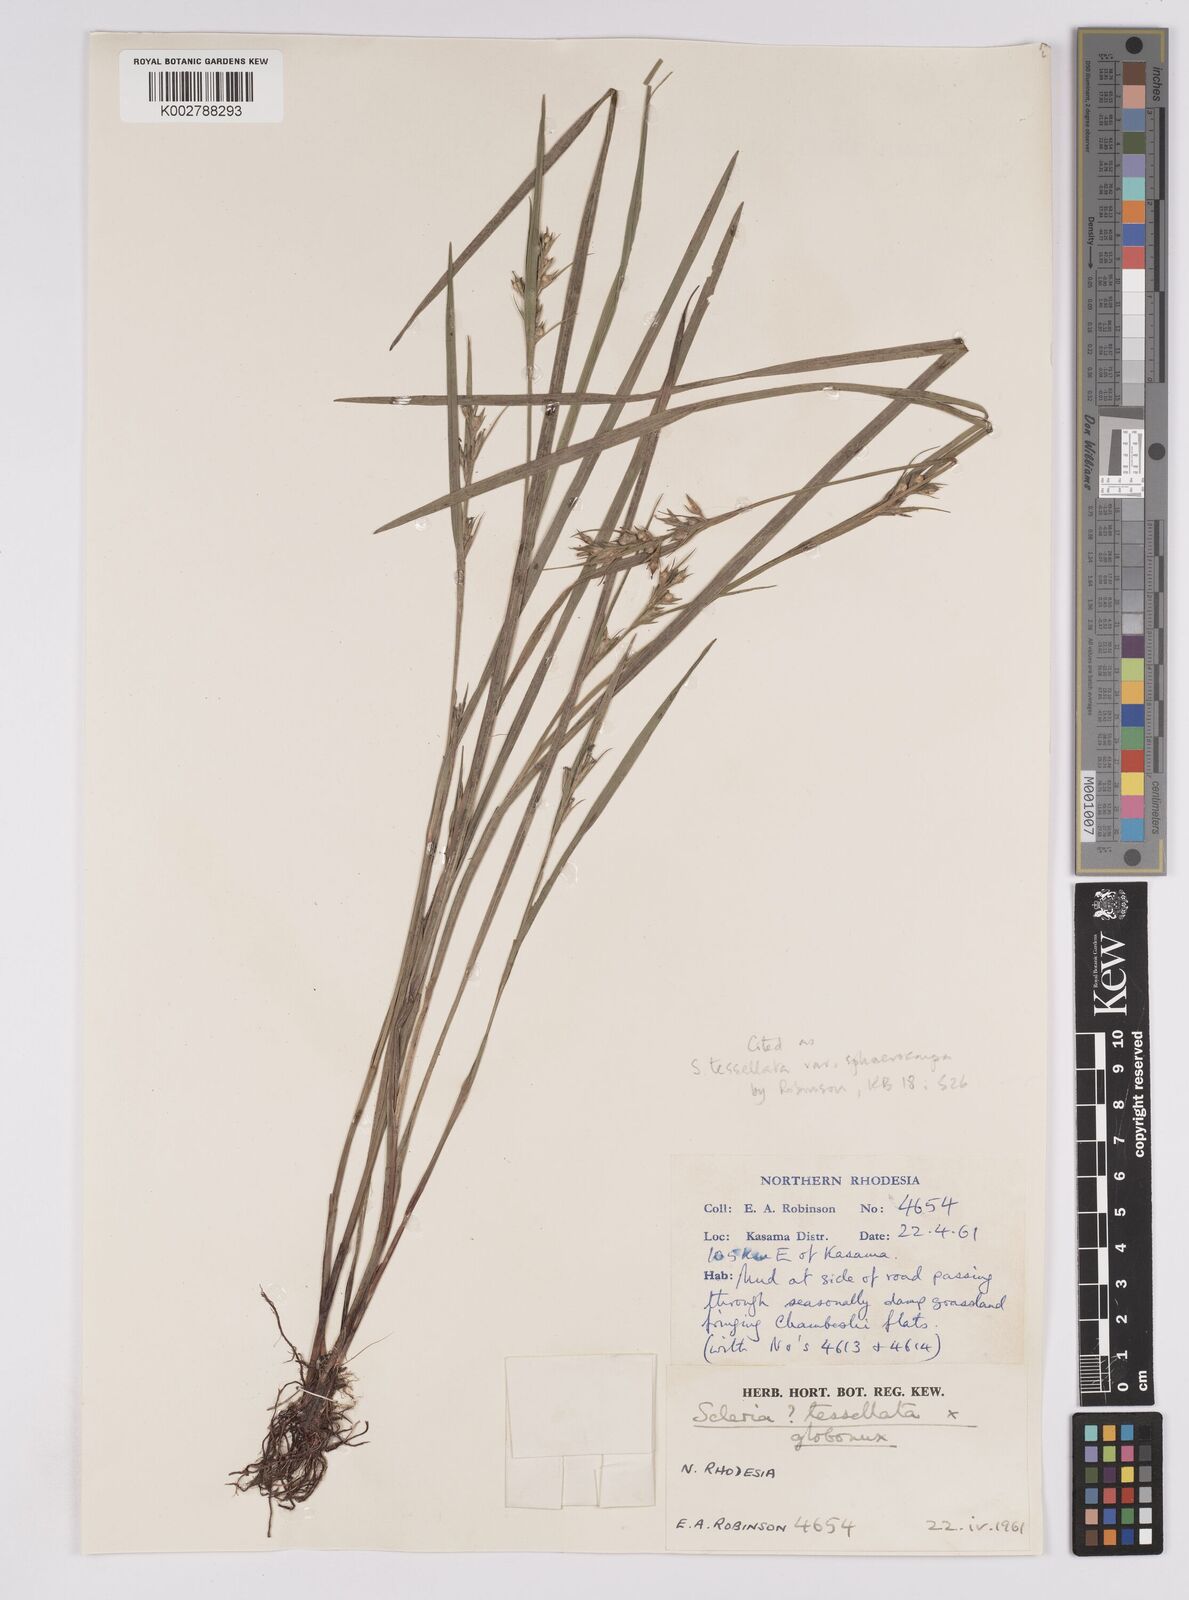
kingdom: Plantae
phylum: Tracheophyta
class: Liliopsida
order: Poales
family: Cyperaceae
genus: Scleria
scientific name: Scleria
